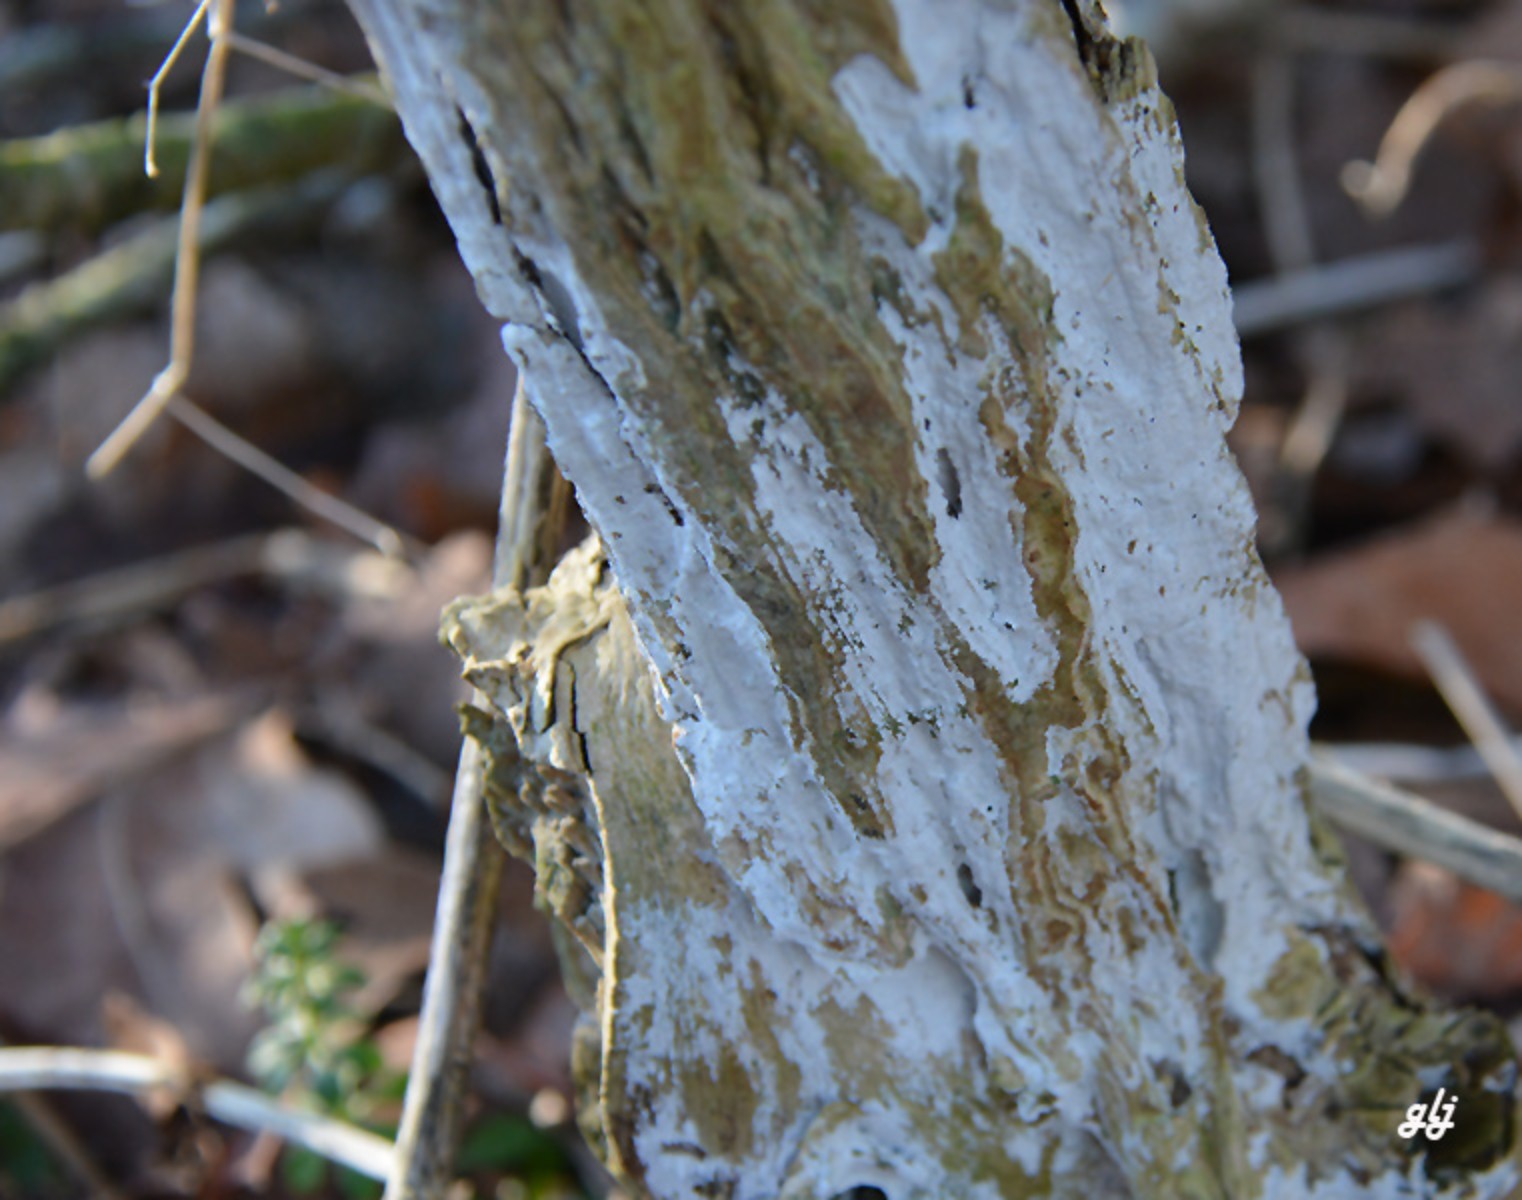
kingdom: Fungi
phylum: Basidiomycota
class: Agaricomycetes
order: Corticiales
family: Corticiaceae
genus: Lyomyces
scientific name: Lyomyces sambuci
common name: almindelig hyldehinde
